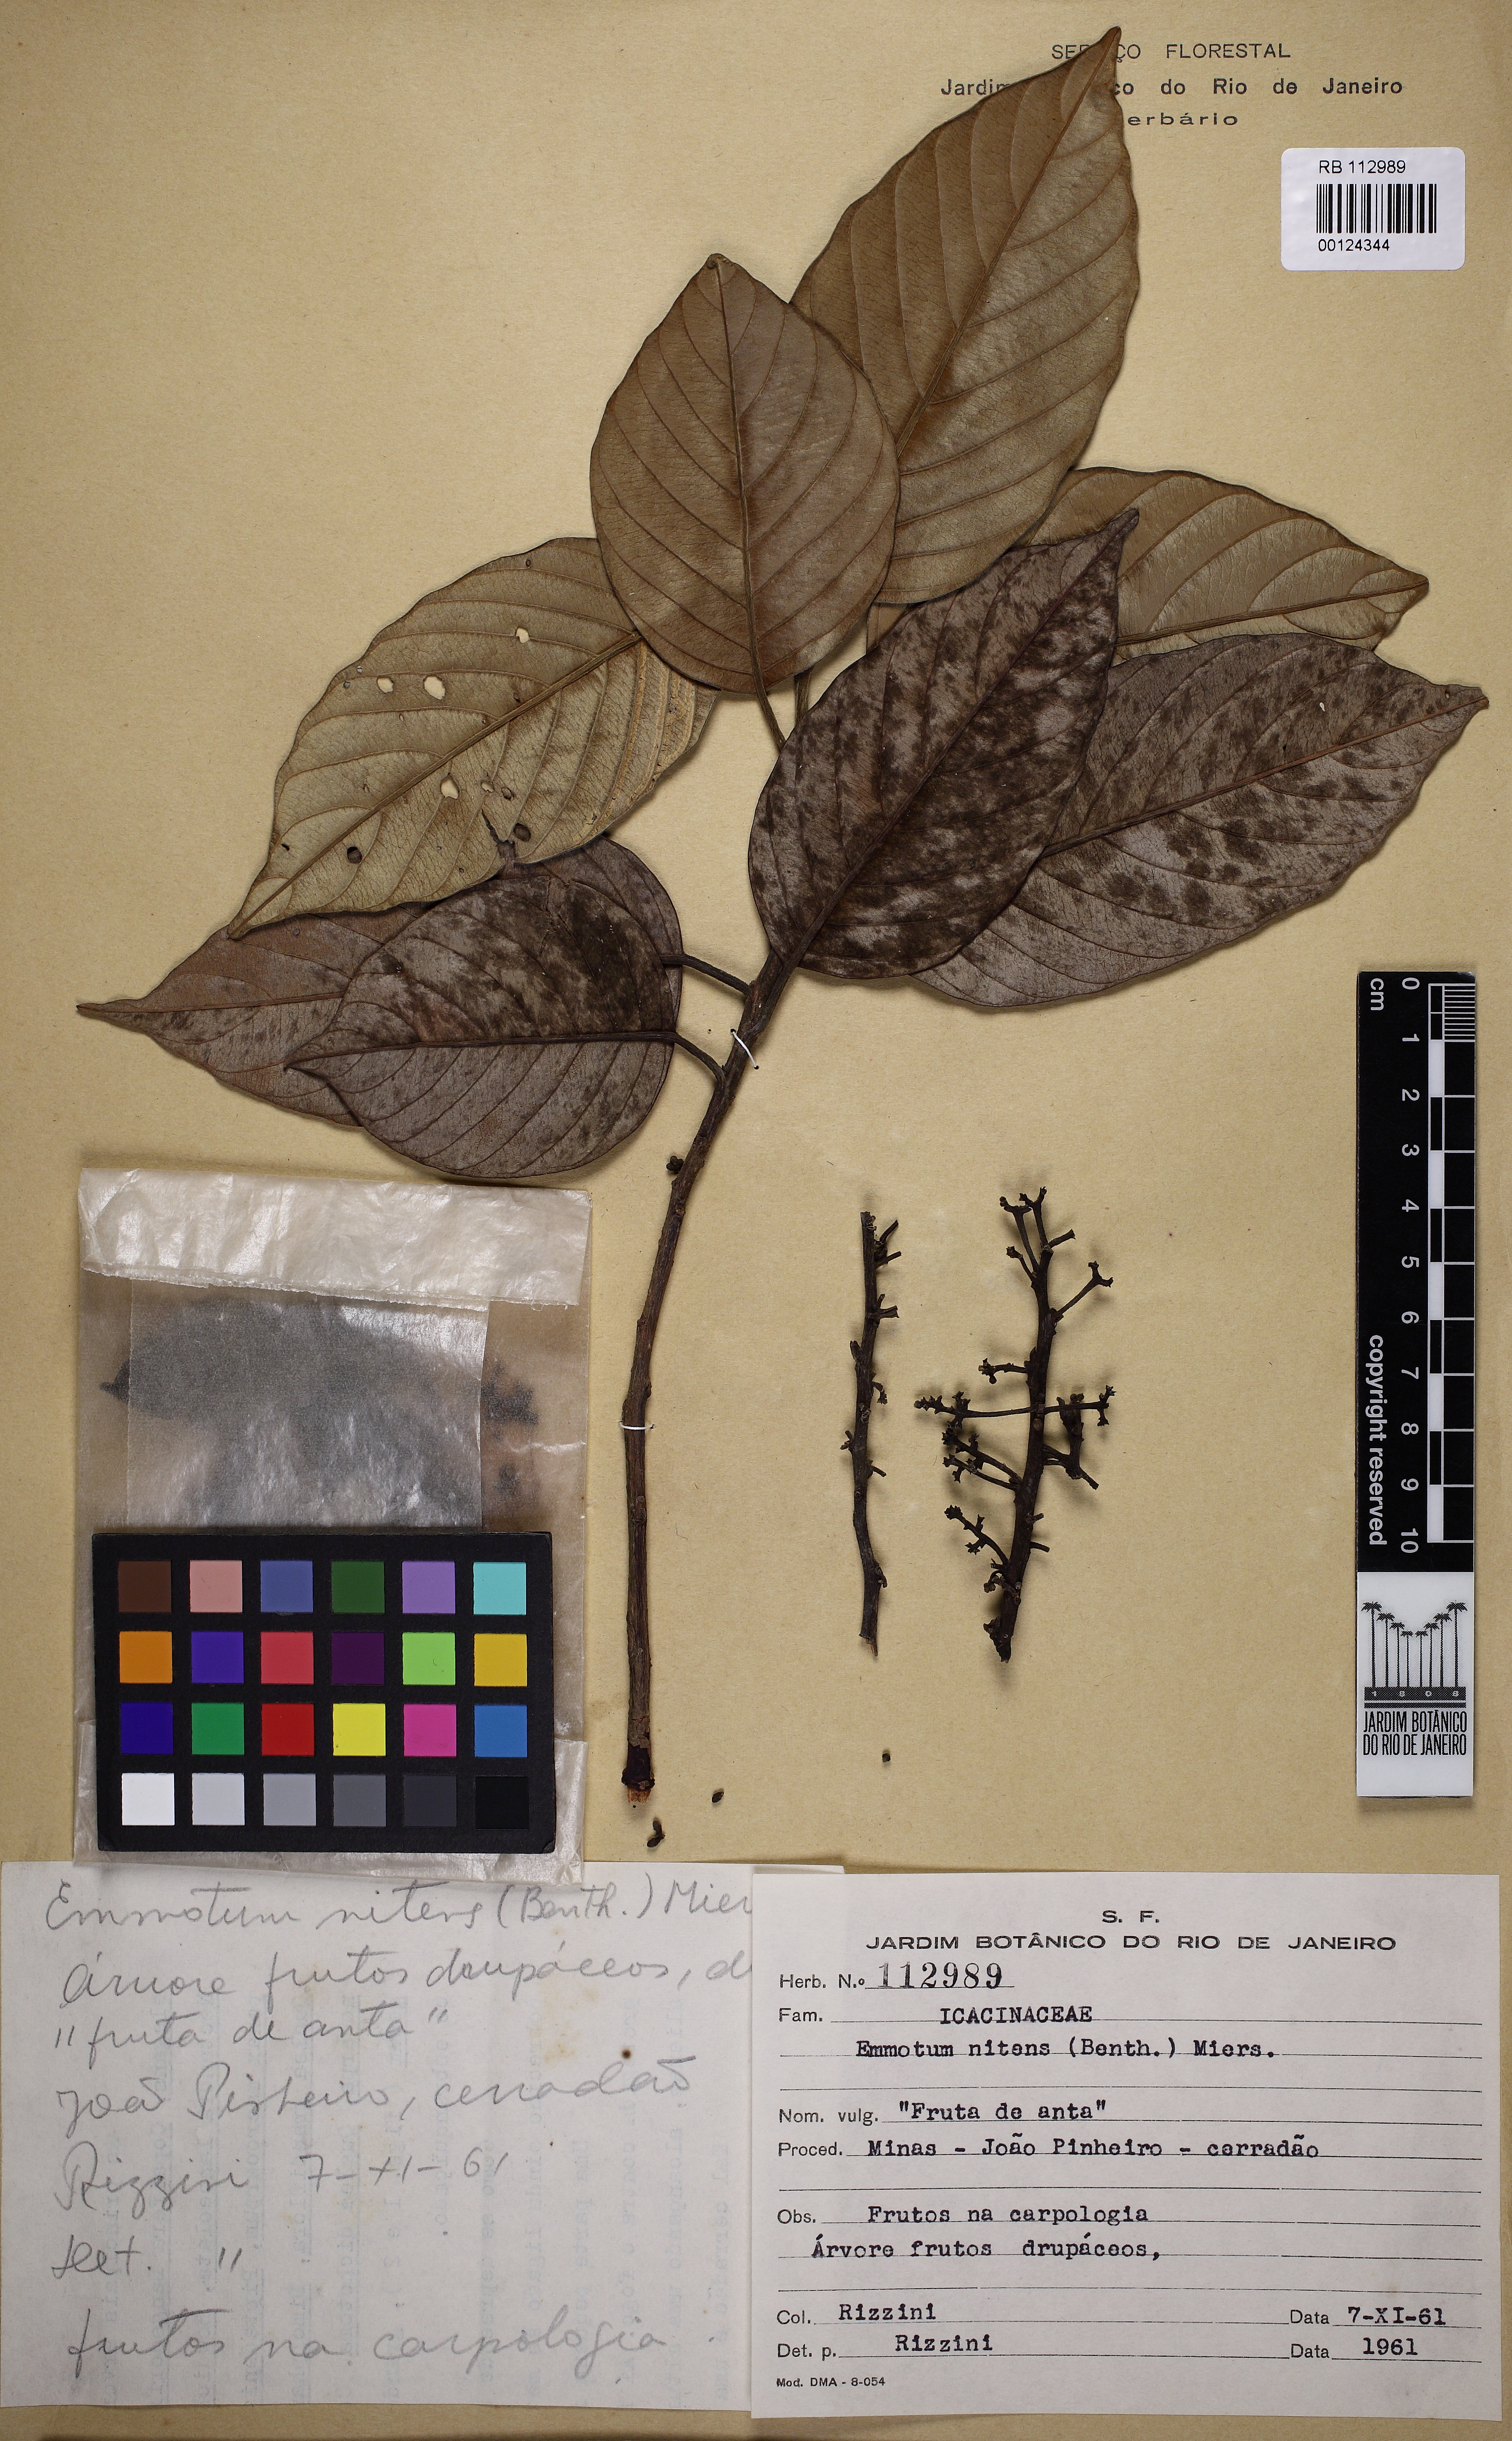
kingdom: Plantae
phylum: Tracheophyta
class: Magnoliopsida
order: Metteniusales
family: Metteniusaceae
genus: Emmotum
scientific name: Emmotum nitens
